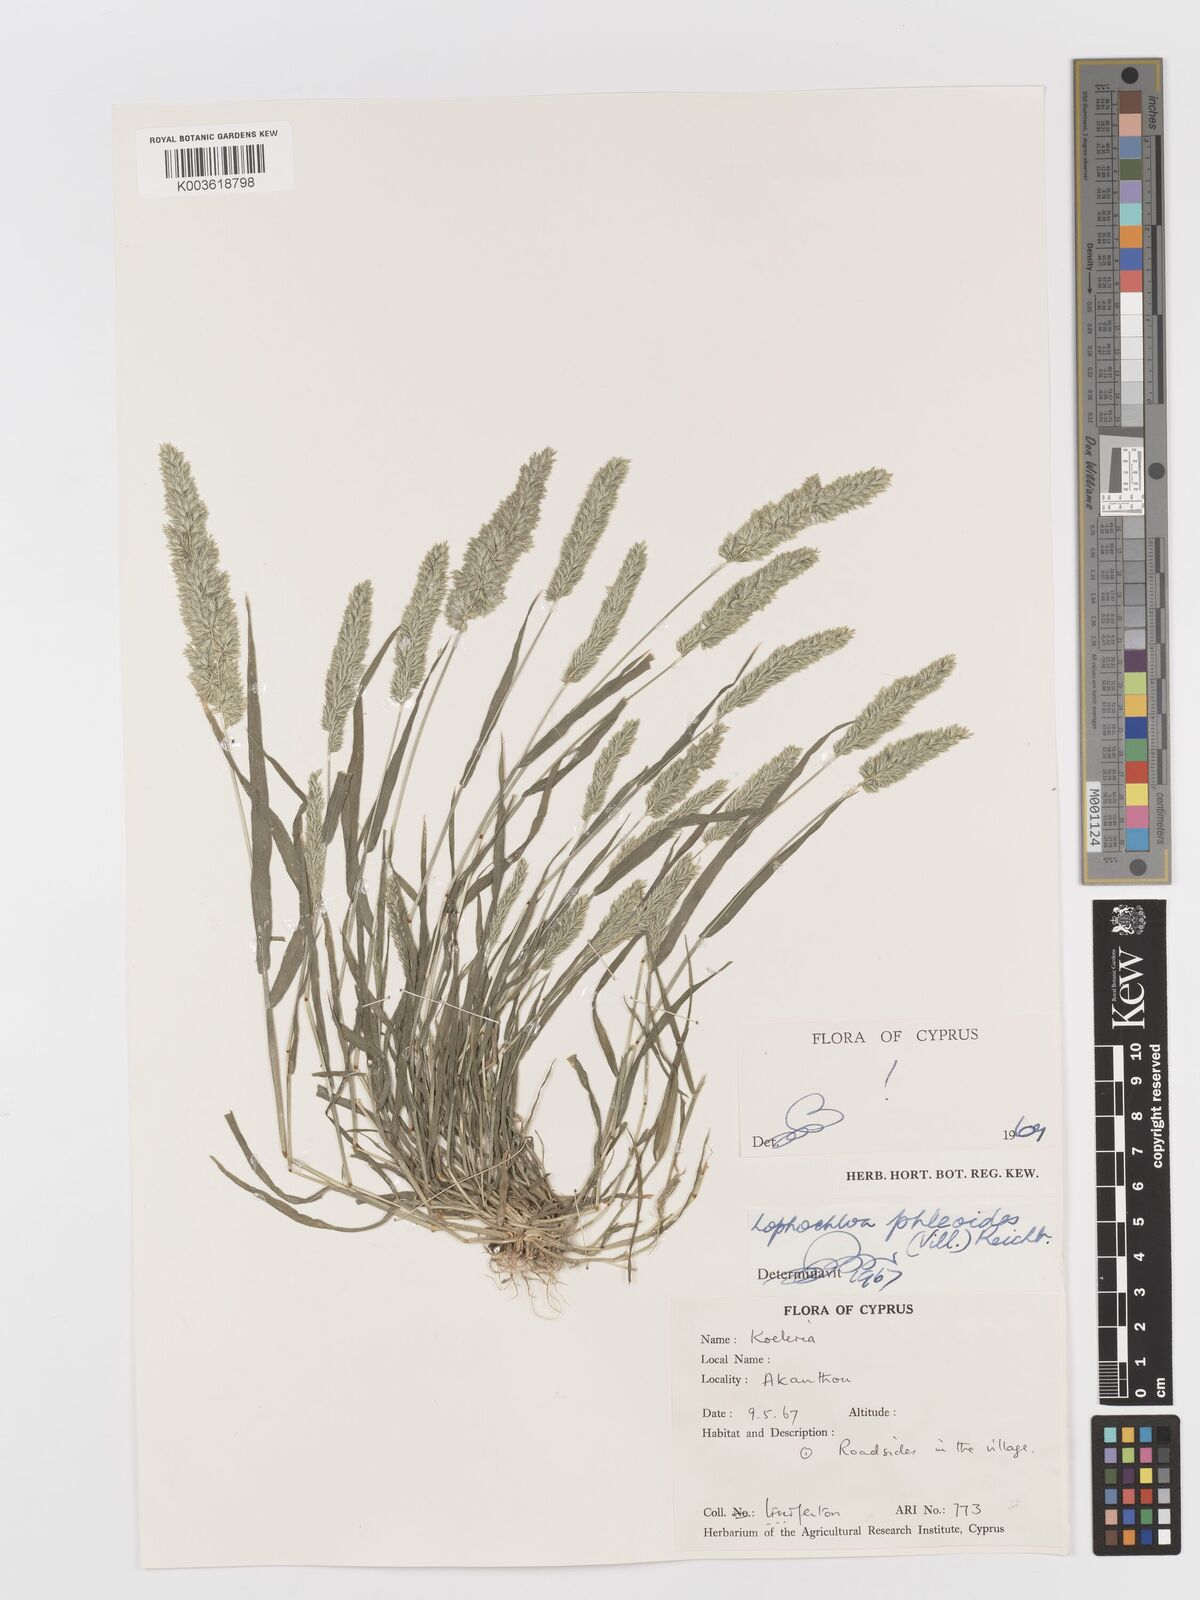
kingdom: Plantae
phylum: Tracheophyta
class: Liliopsida
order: Poales
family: Poaceae
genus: Rostraria
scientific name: Rostraria cristata
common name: Mediterranean hair-grass
